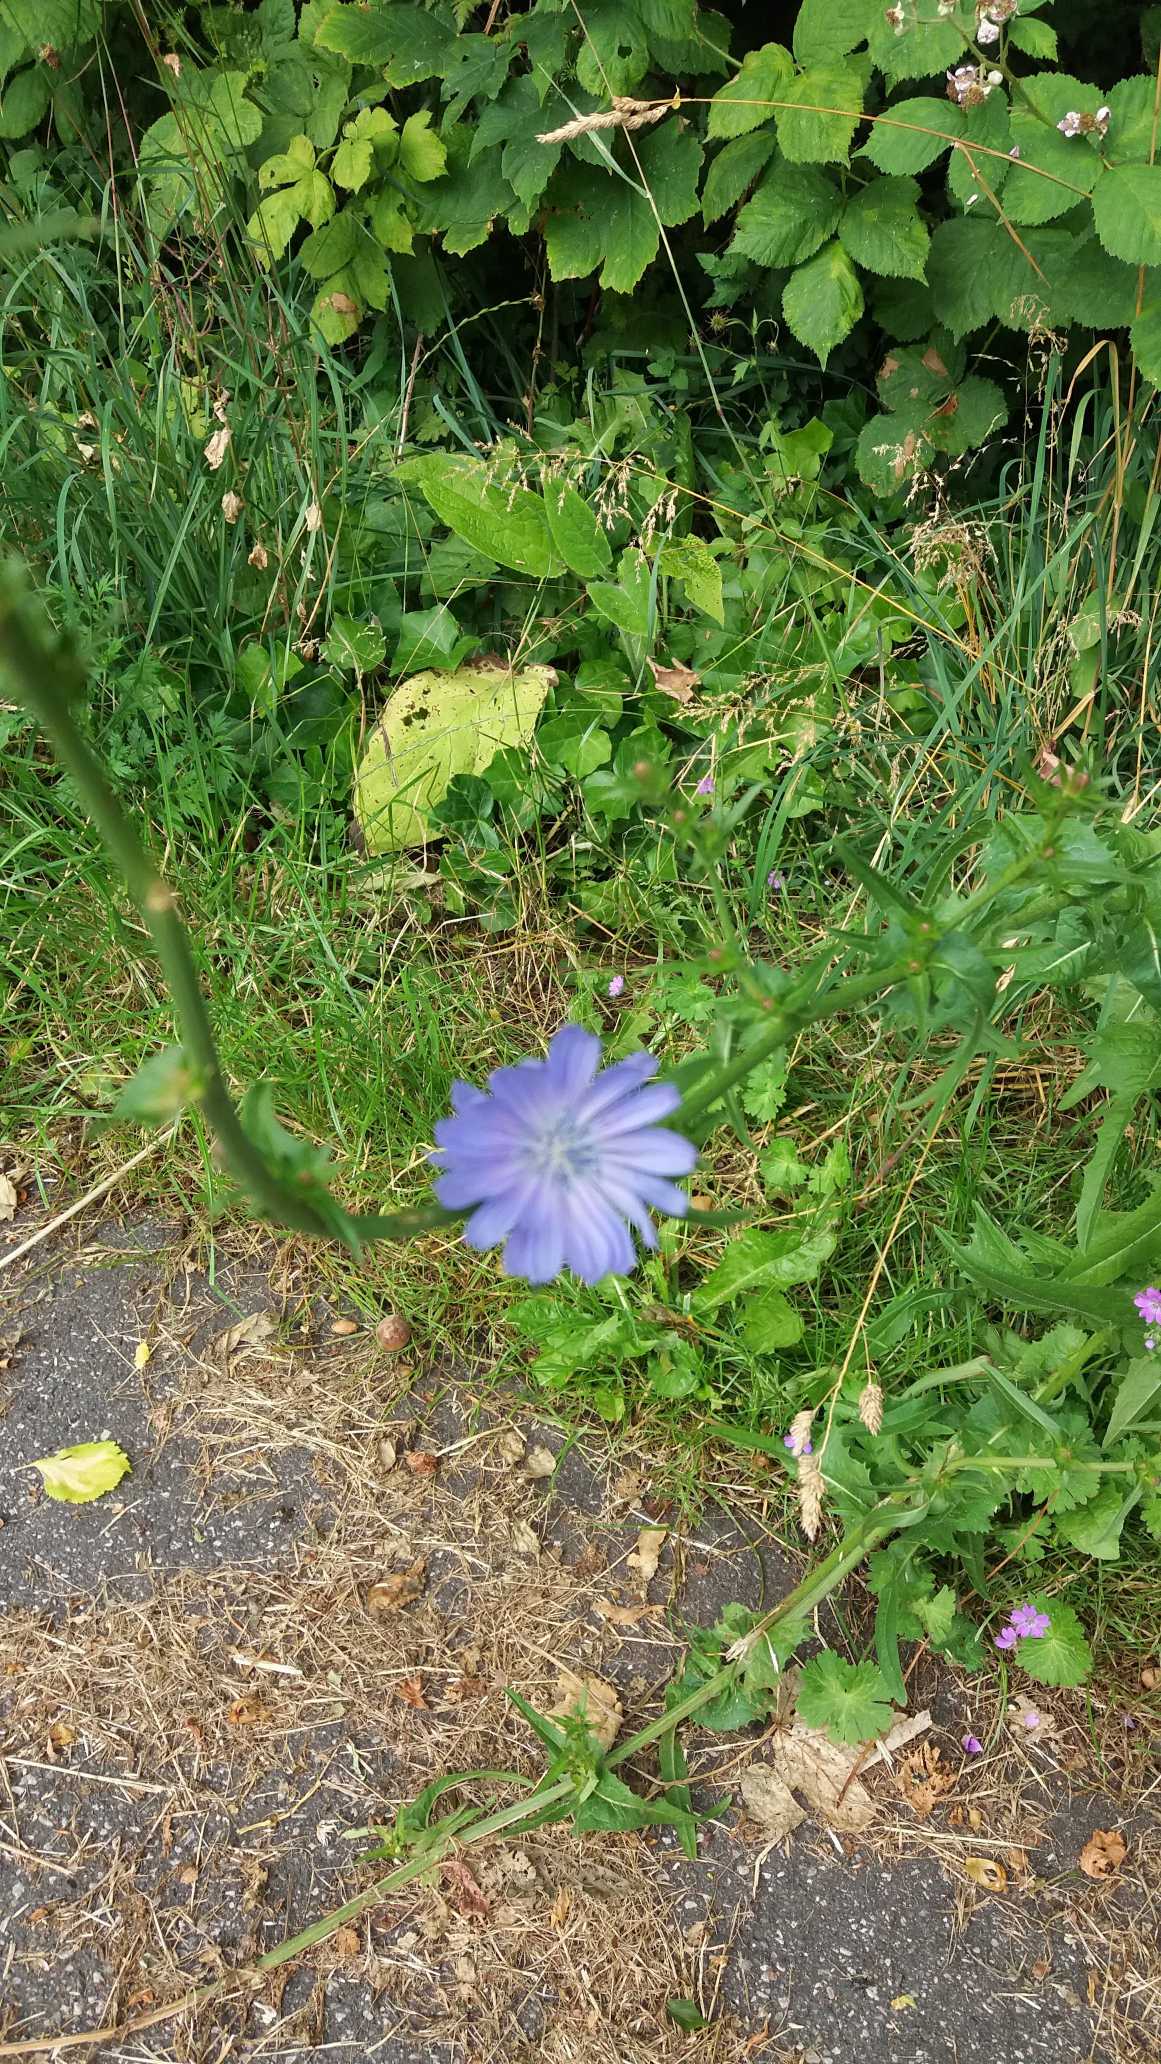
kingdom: Plantae
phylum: Tracheophyta
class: Magnoliopsida
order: Asterales
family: Asteraceae
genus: Cichorium
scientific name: Cichorium intybus
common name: Cikorie
